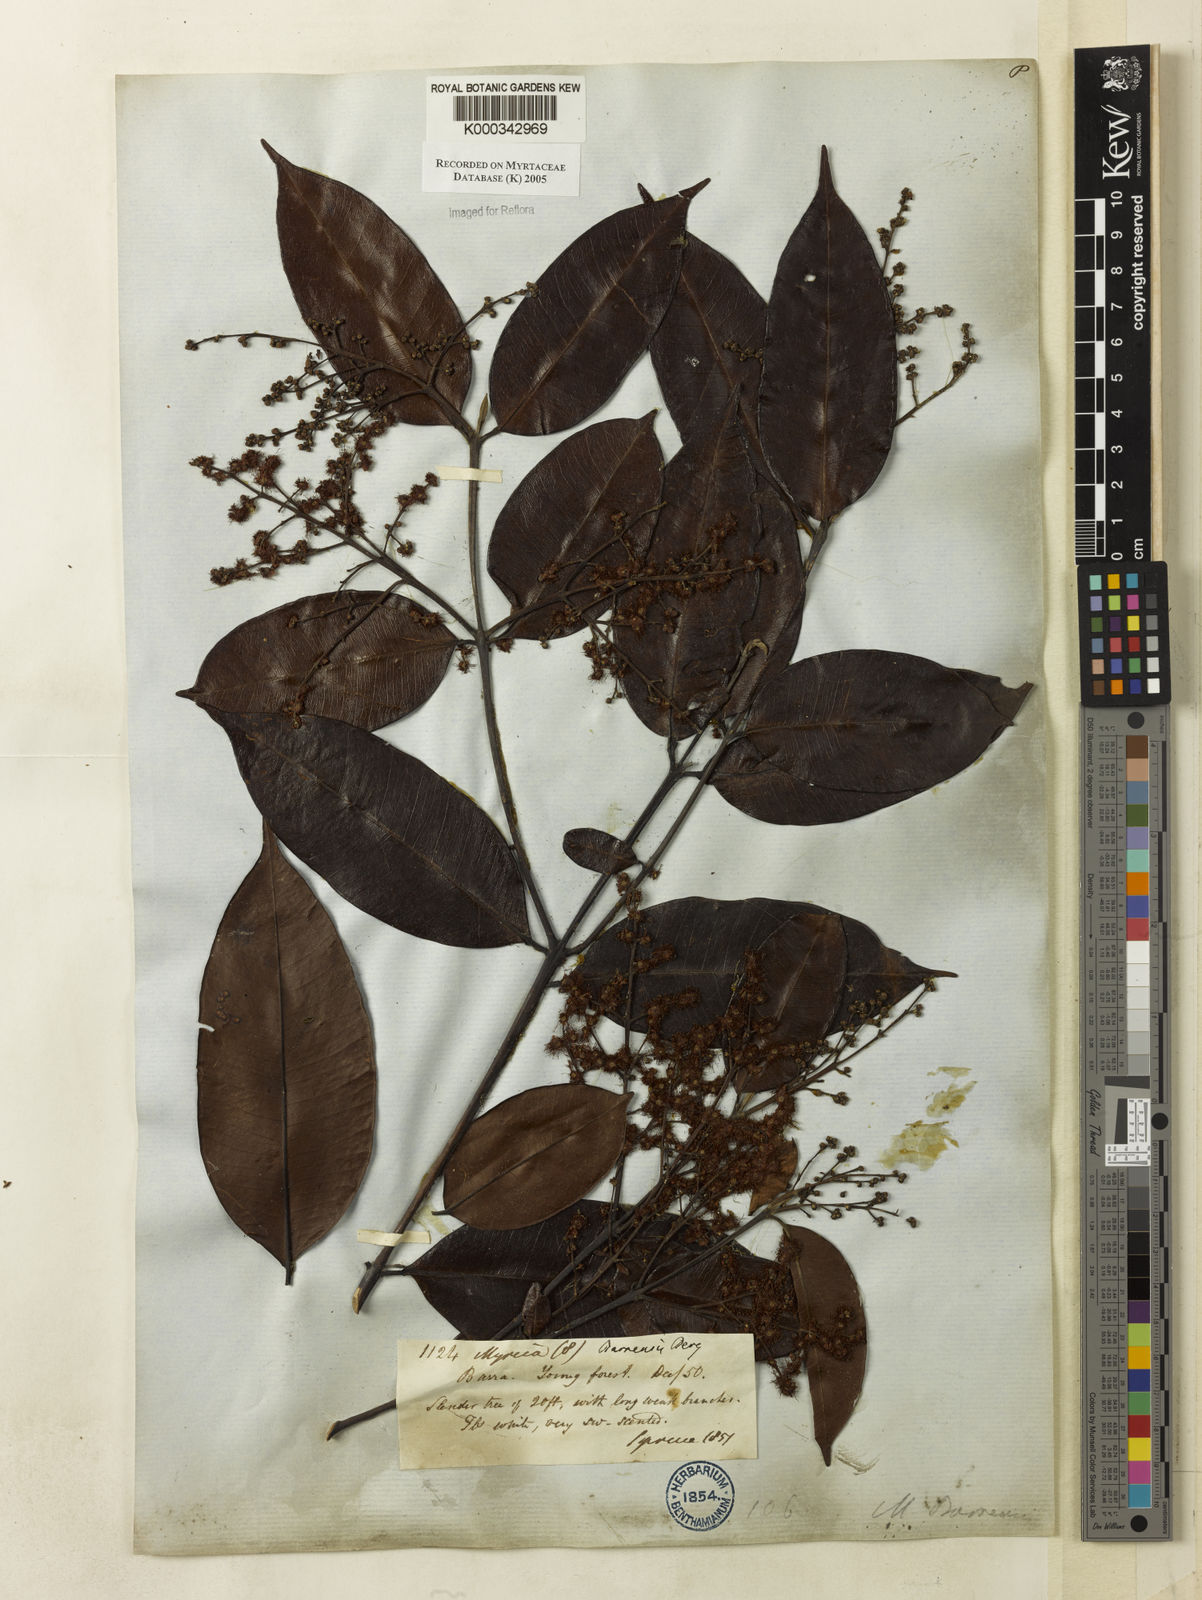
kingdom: Plantae
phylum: Tracheophyta
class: Magnoliopsida
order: Myrtales
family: Myrtaceae
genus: Myrcia
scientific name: Myrcia splendens
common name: Surinam cherry
